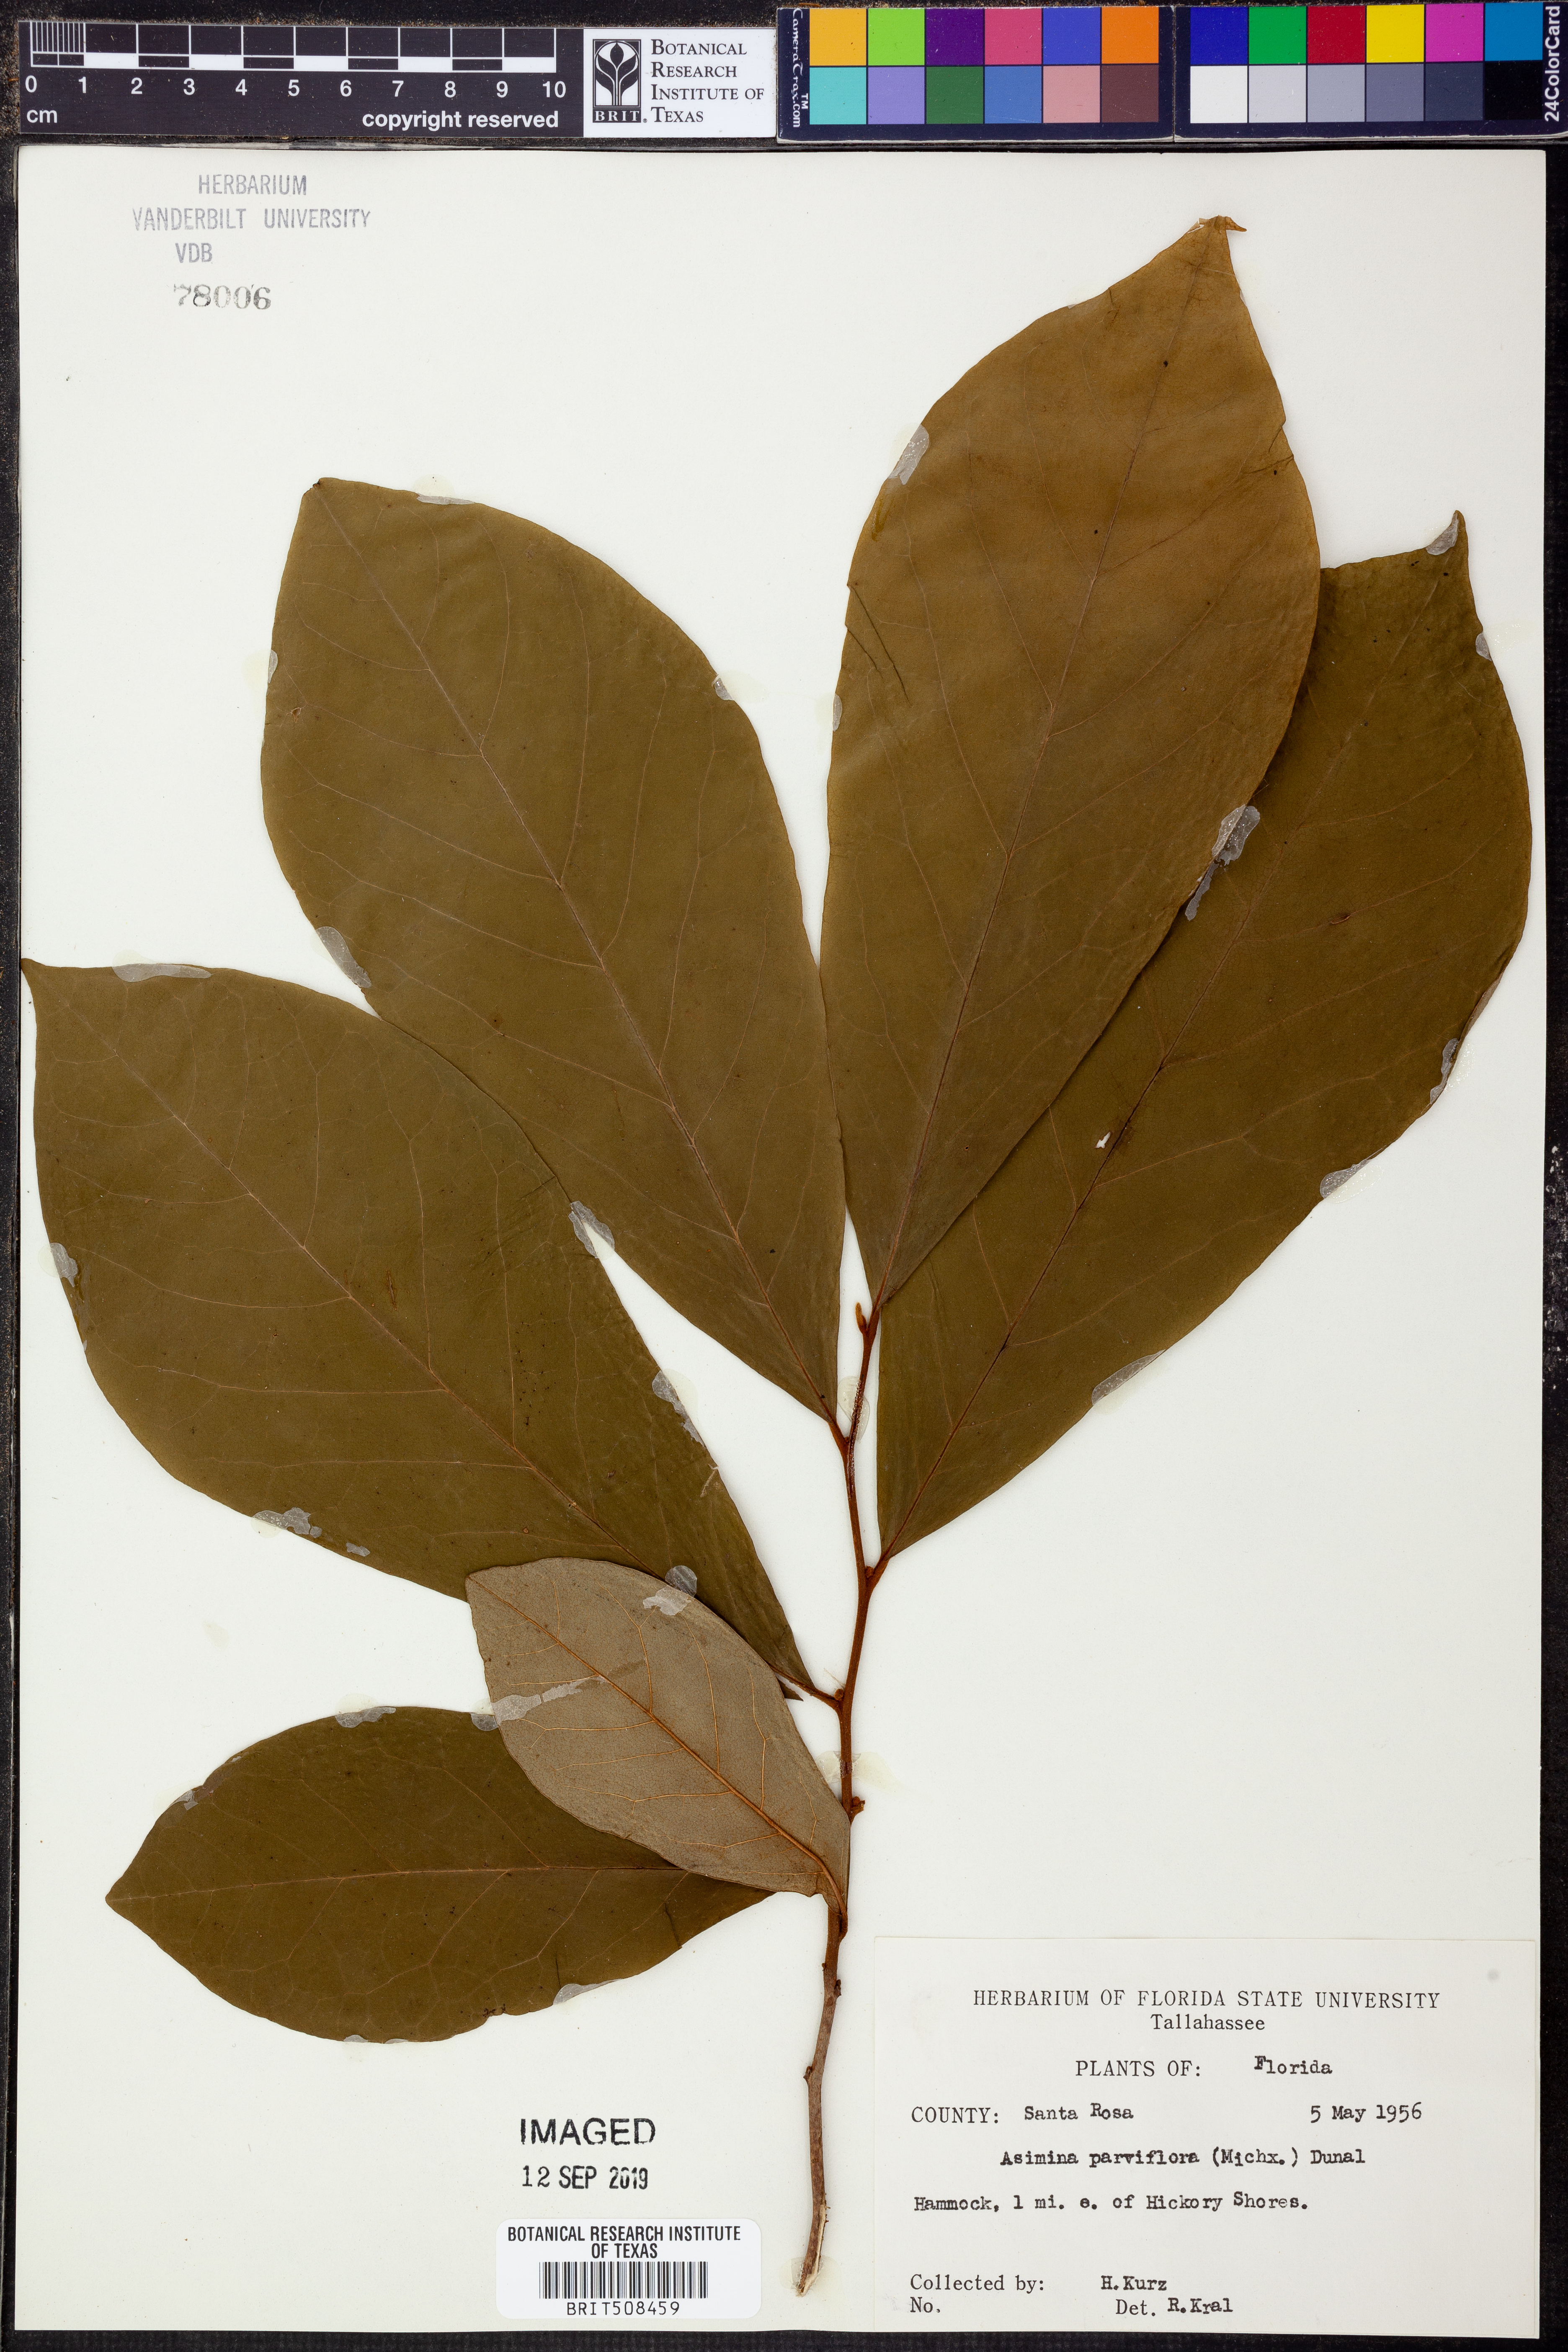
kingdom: Plantae
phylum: Tracheophyta
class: Magnoliopsida
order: Magnoliales
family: Annonaceae
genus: Asimina
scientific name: Asimina parviflora
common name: Dwarf pawpaw
